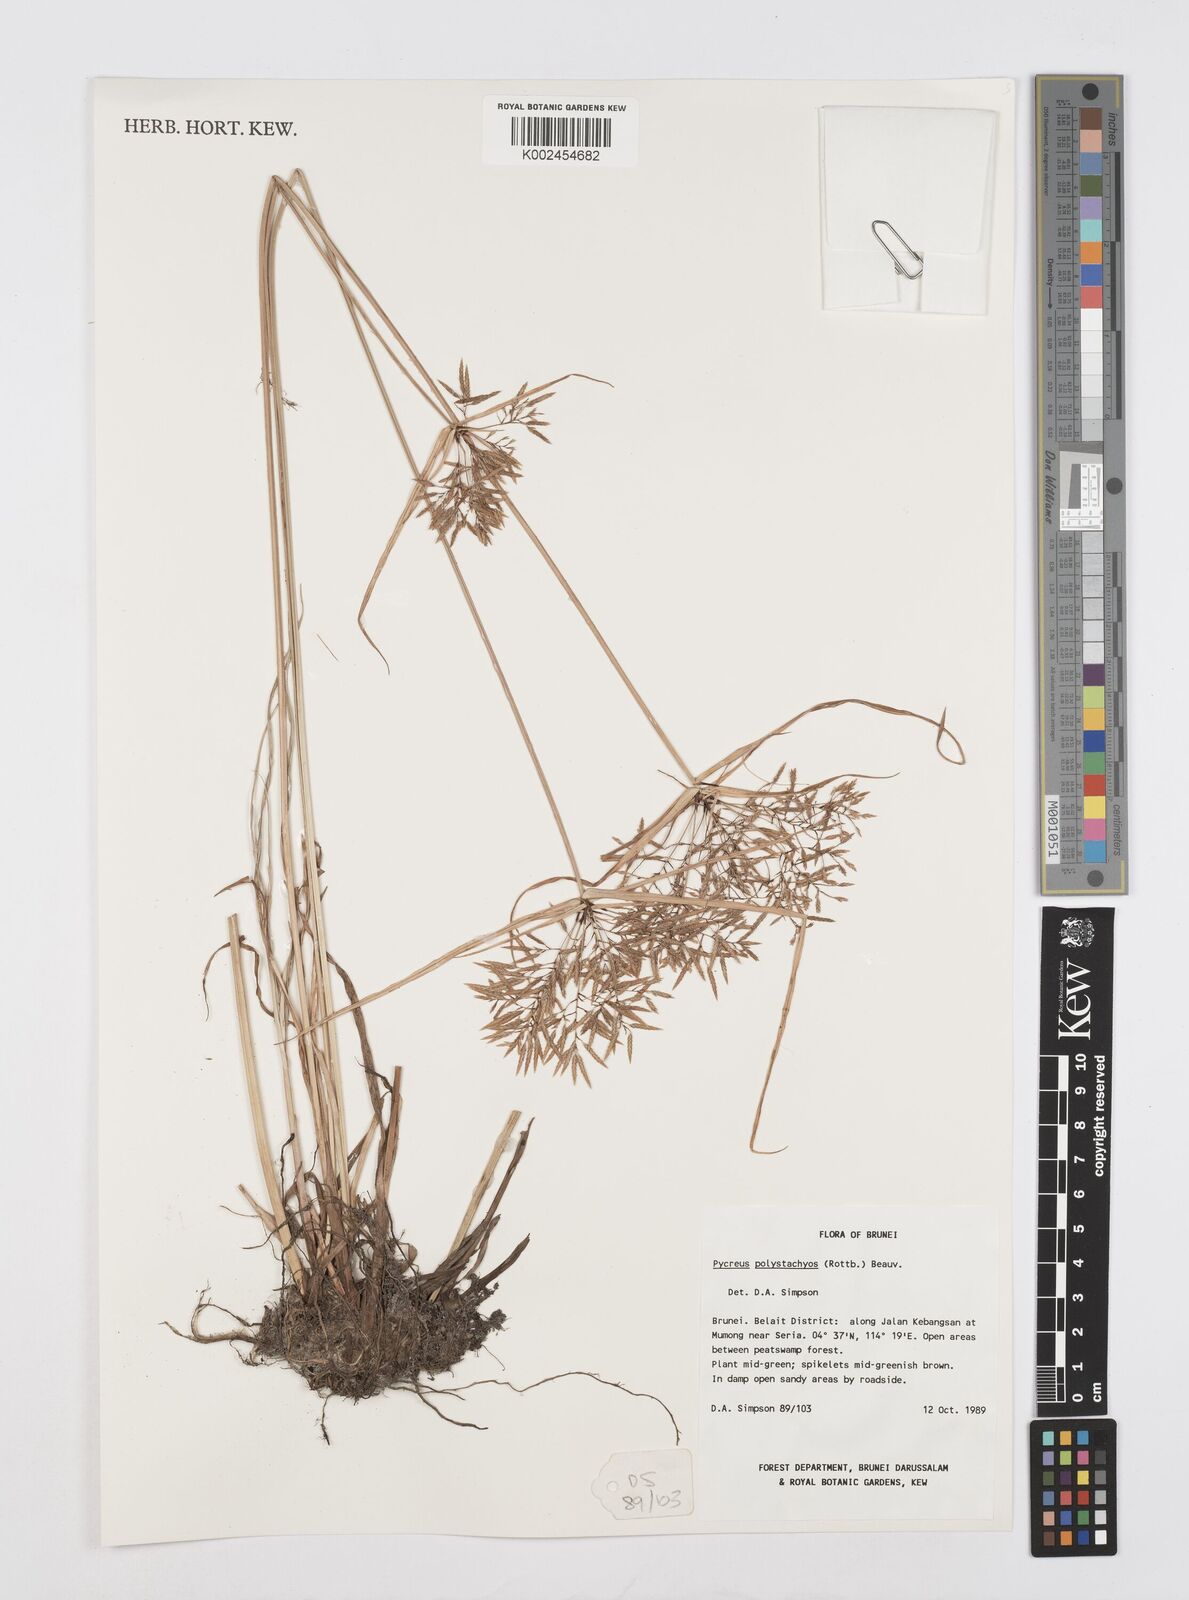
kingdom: Plantae
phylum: Tracheophyta
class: Liliopsida
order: Poales
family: Cyperaceae
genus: Cyperus
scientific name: Cyperus polystachyos
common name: Bunchy flat sedge
